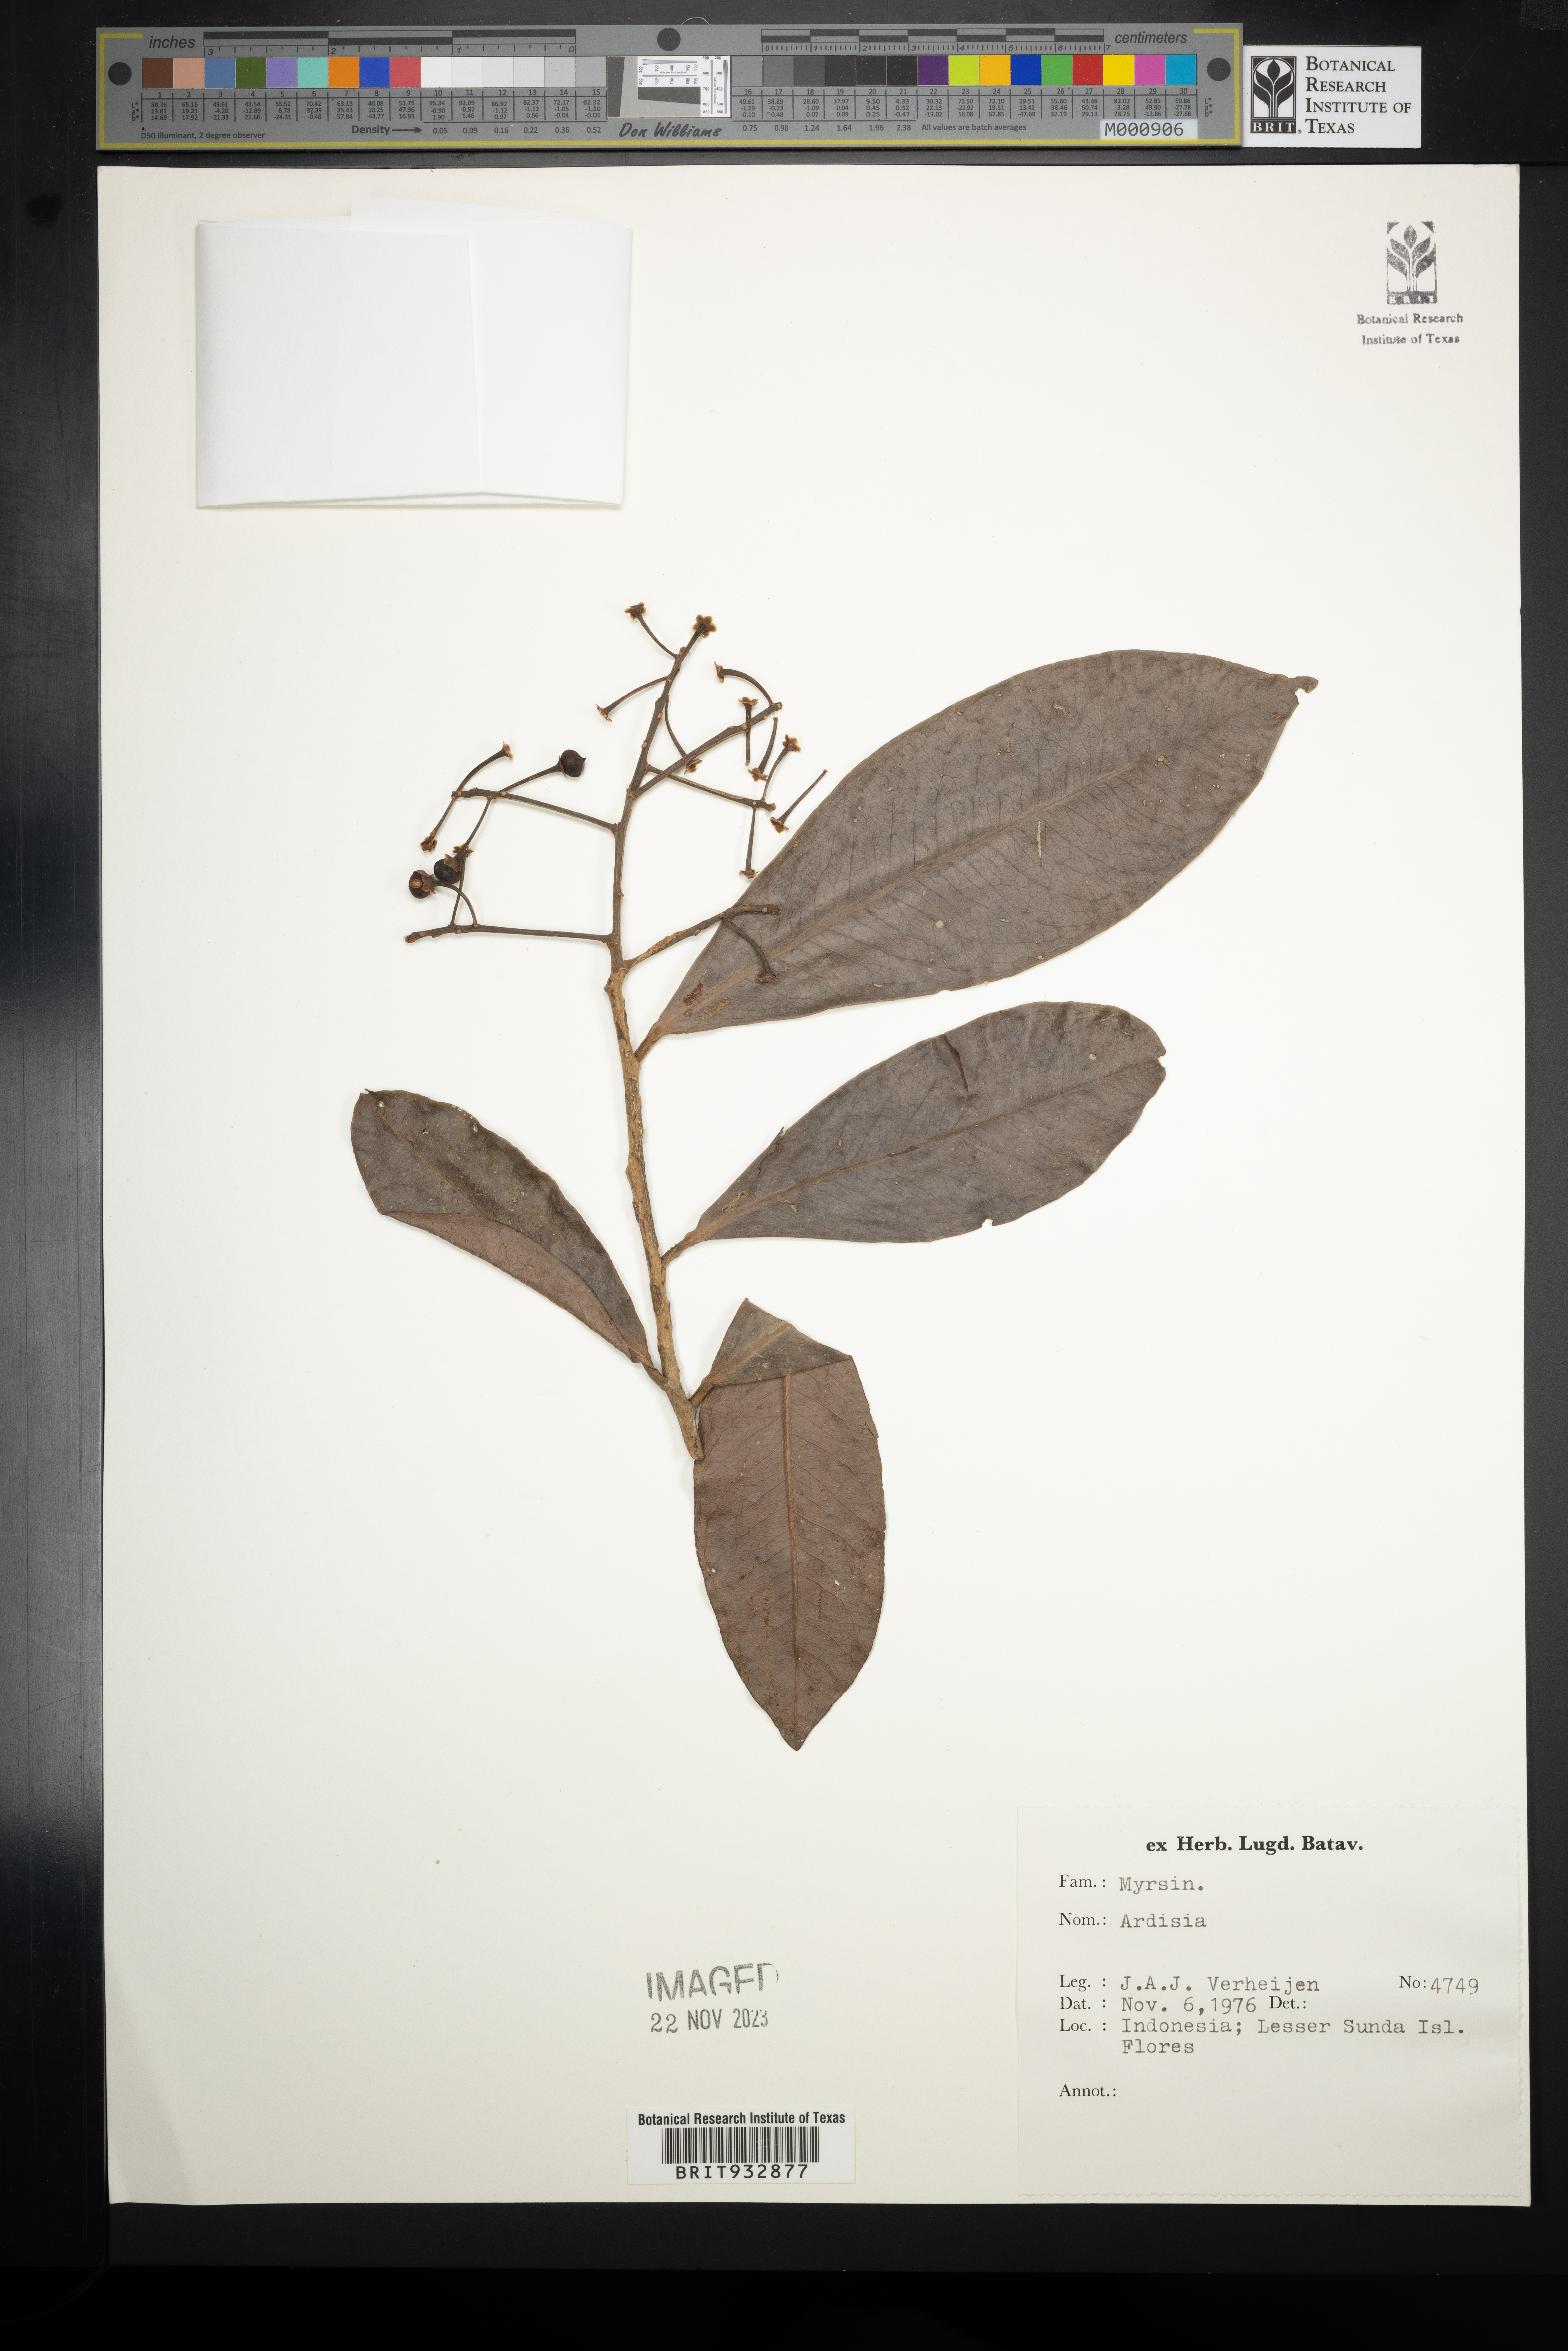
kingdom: Plantae
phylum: Tracheophyta
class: Magnoliopsida
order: Ericales
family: Primulaceae
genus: Ardisia
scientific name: Ardisia
